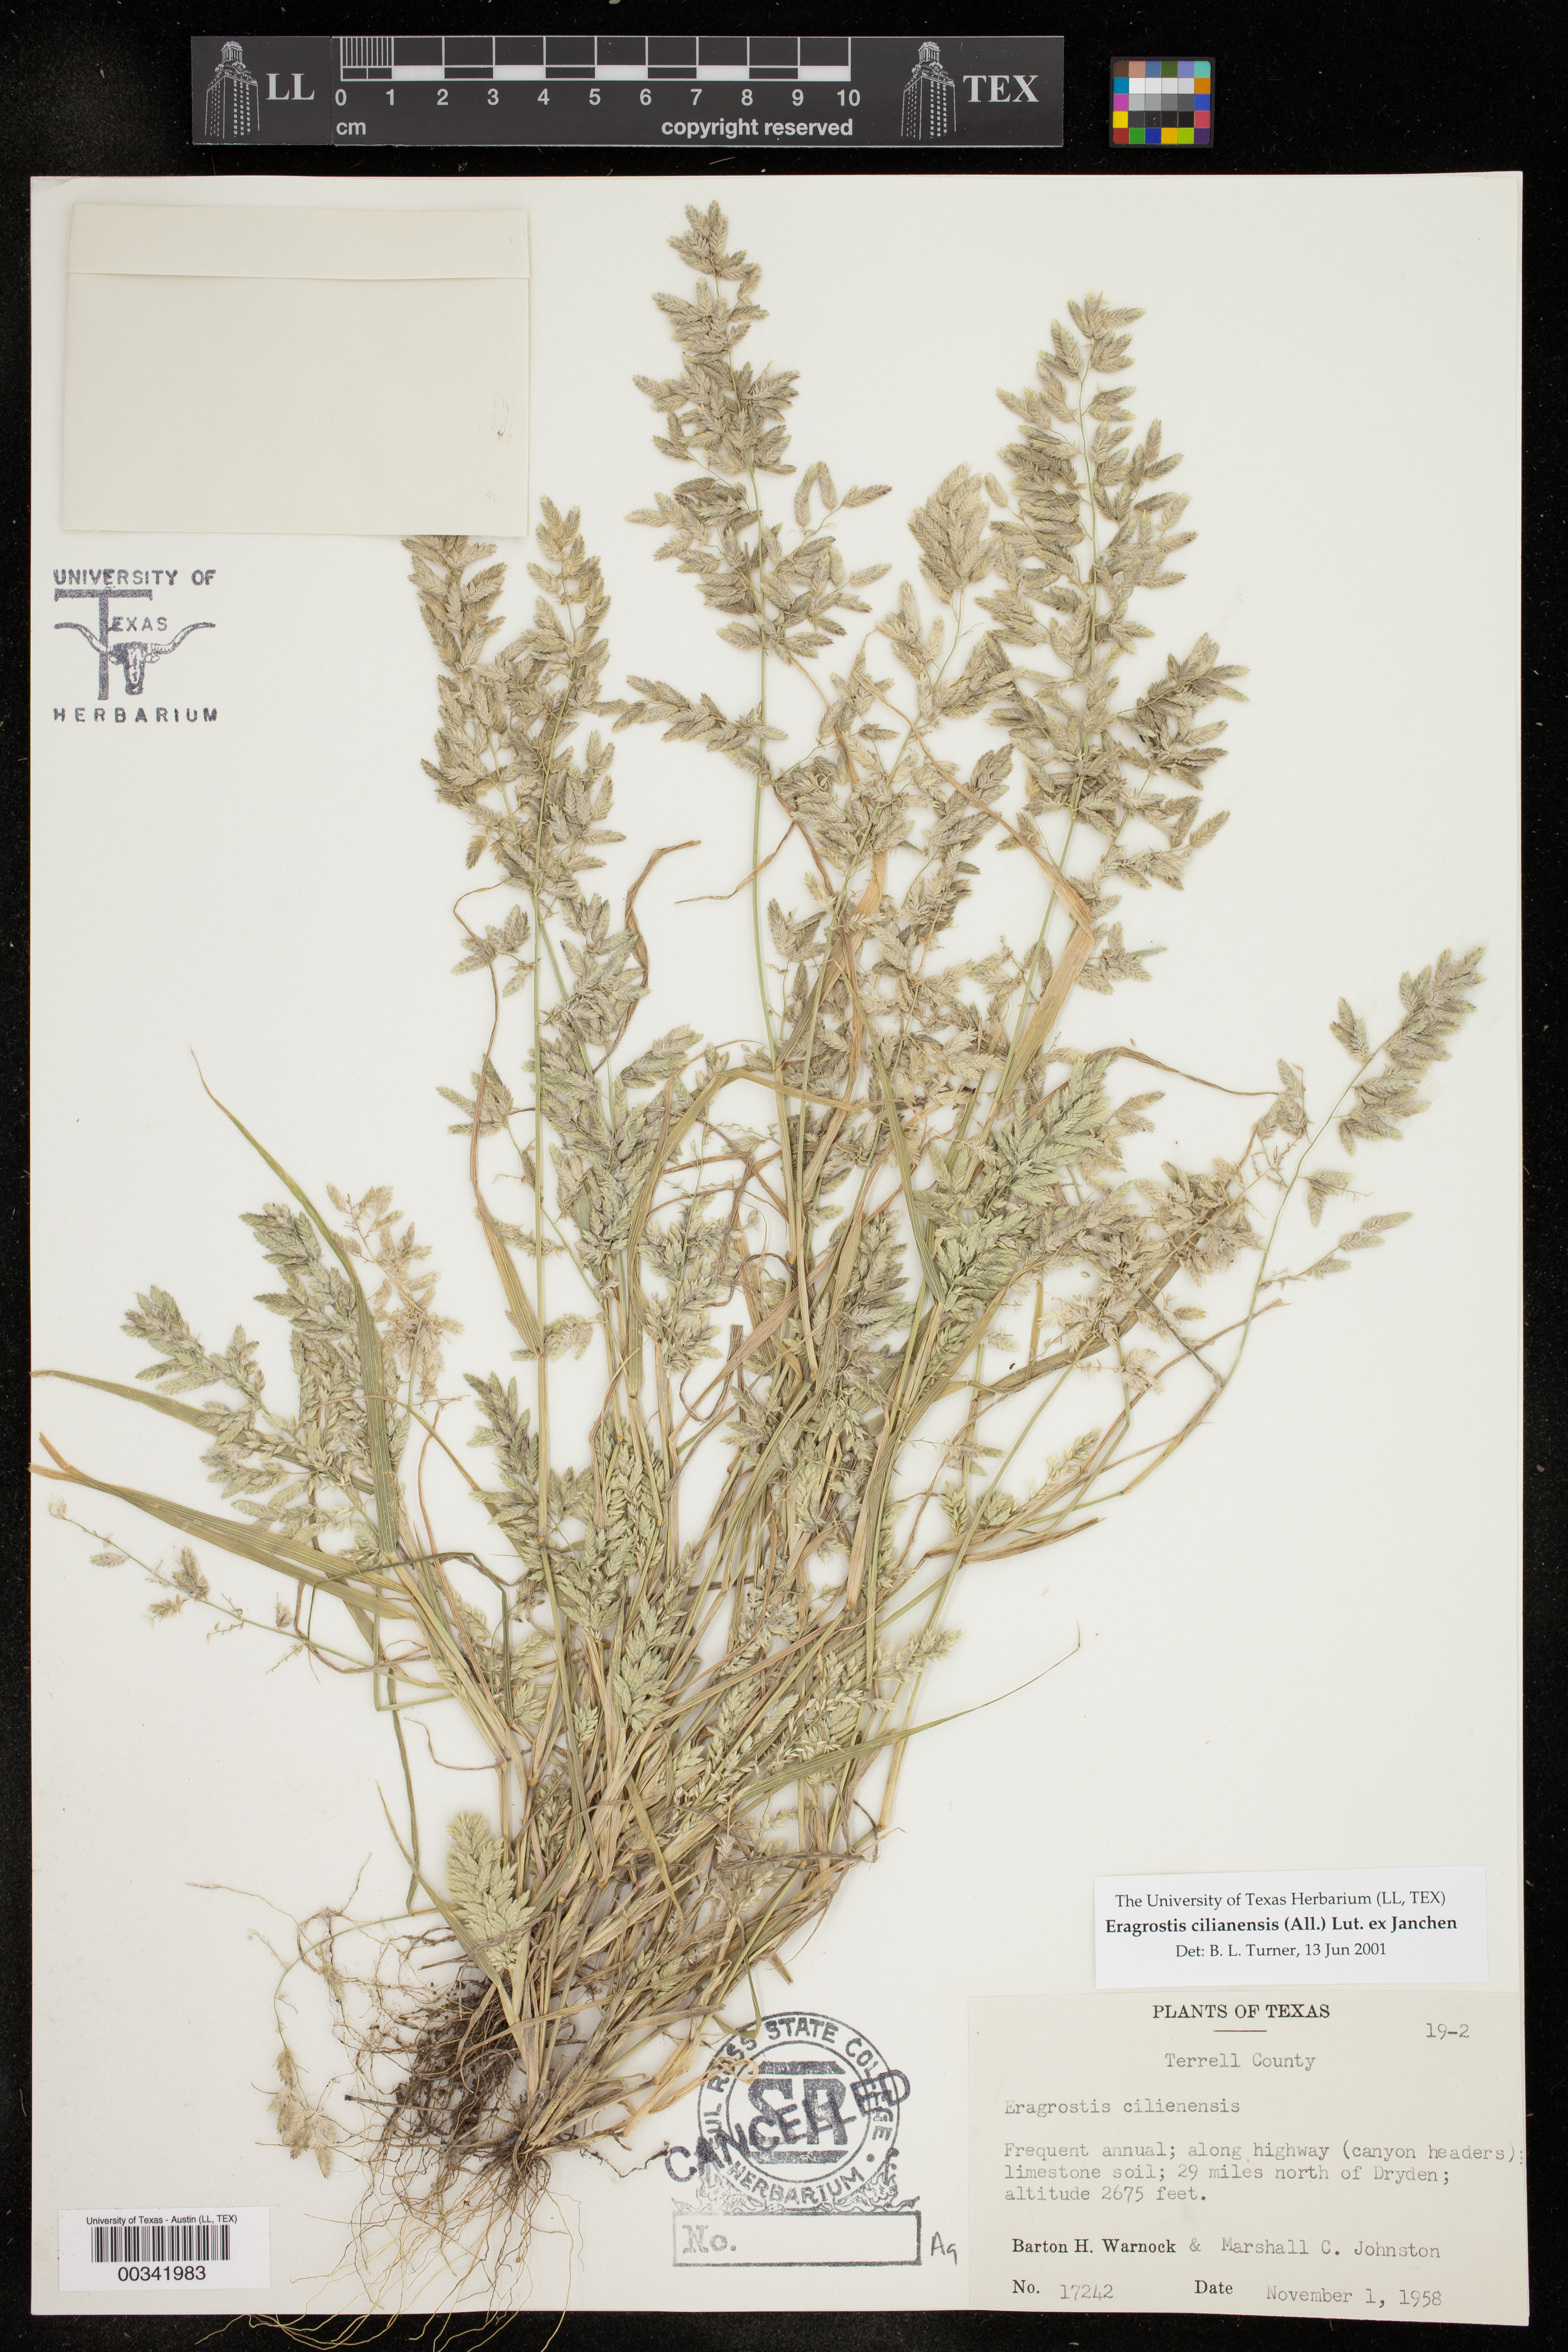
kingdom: Plantae
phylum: Tracheophyta
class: Liliopsida
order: Poales
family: Poaceae
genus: Eragrostis
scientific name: Eragrostis cilianensis
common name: Stinkgrass
